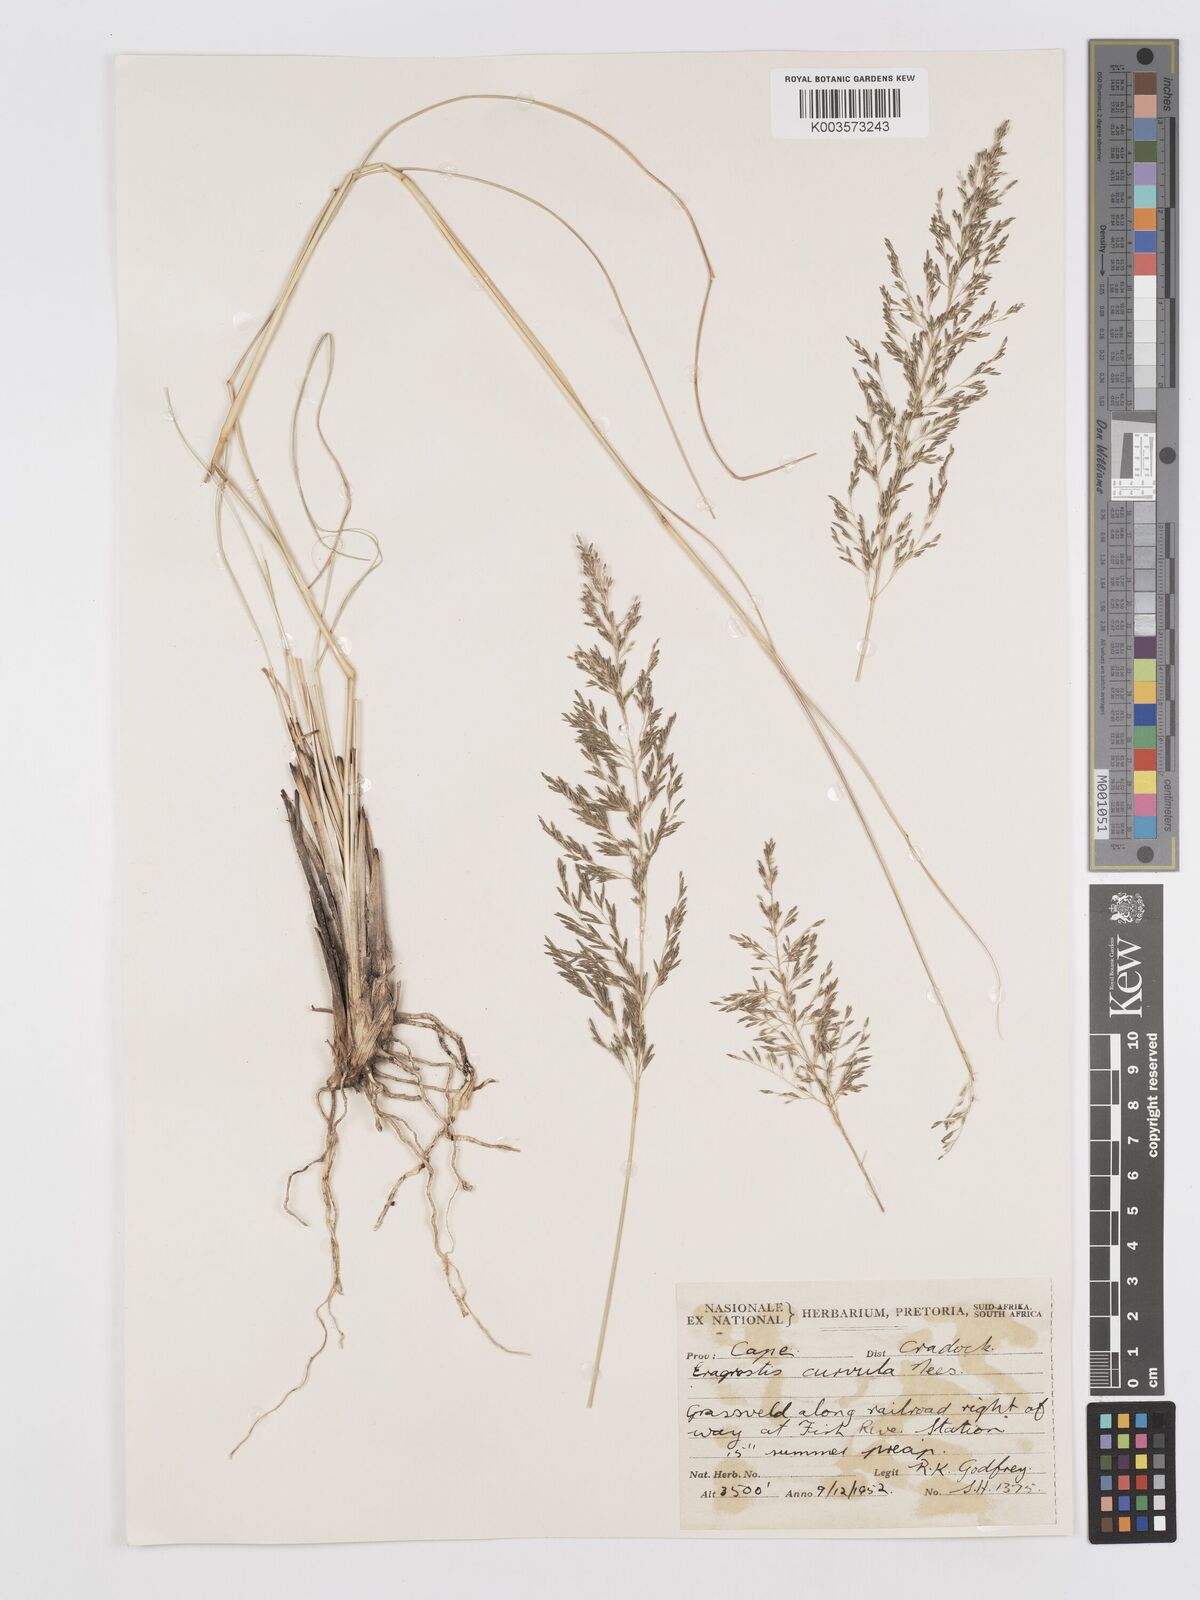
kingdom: Plantae
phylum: Tracheophyta
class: Liliopsida
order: Poales
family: Poaceae
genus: Eragrostis
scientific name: Eragrostis curvula
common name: African love-grass
